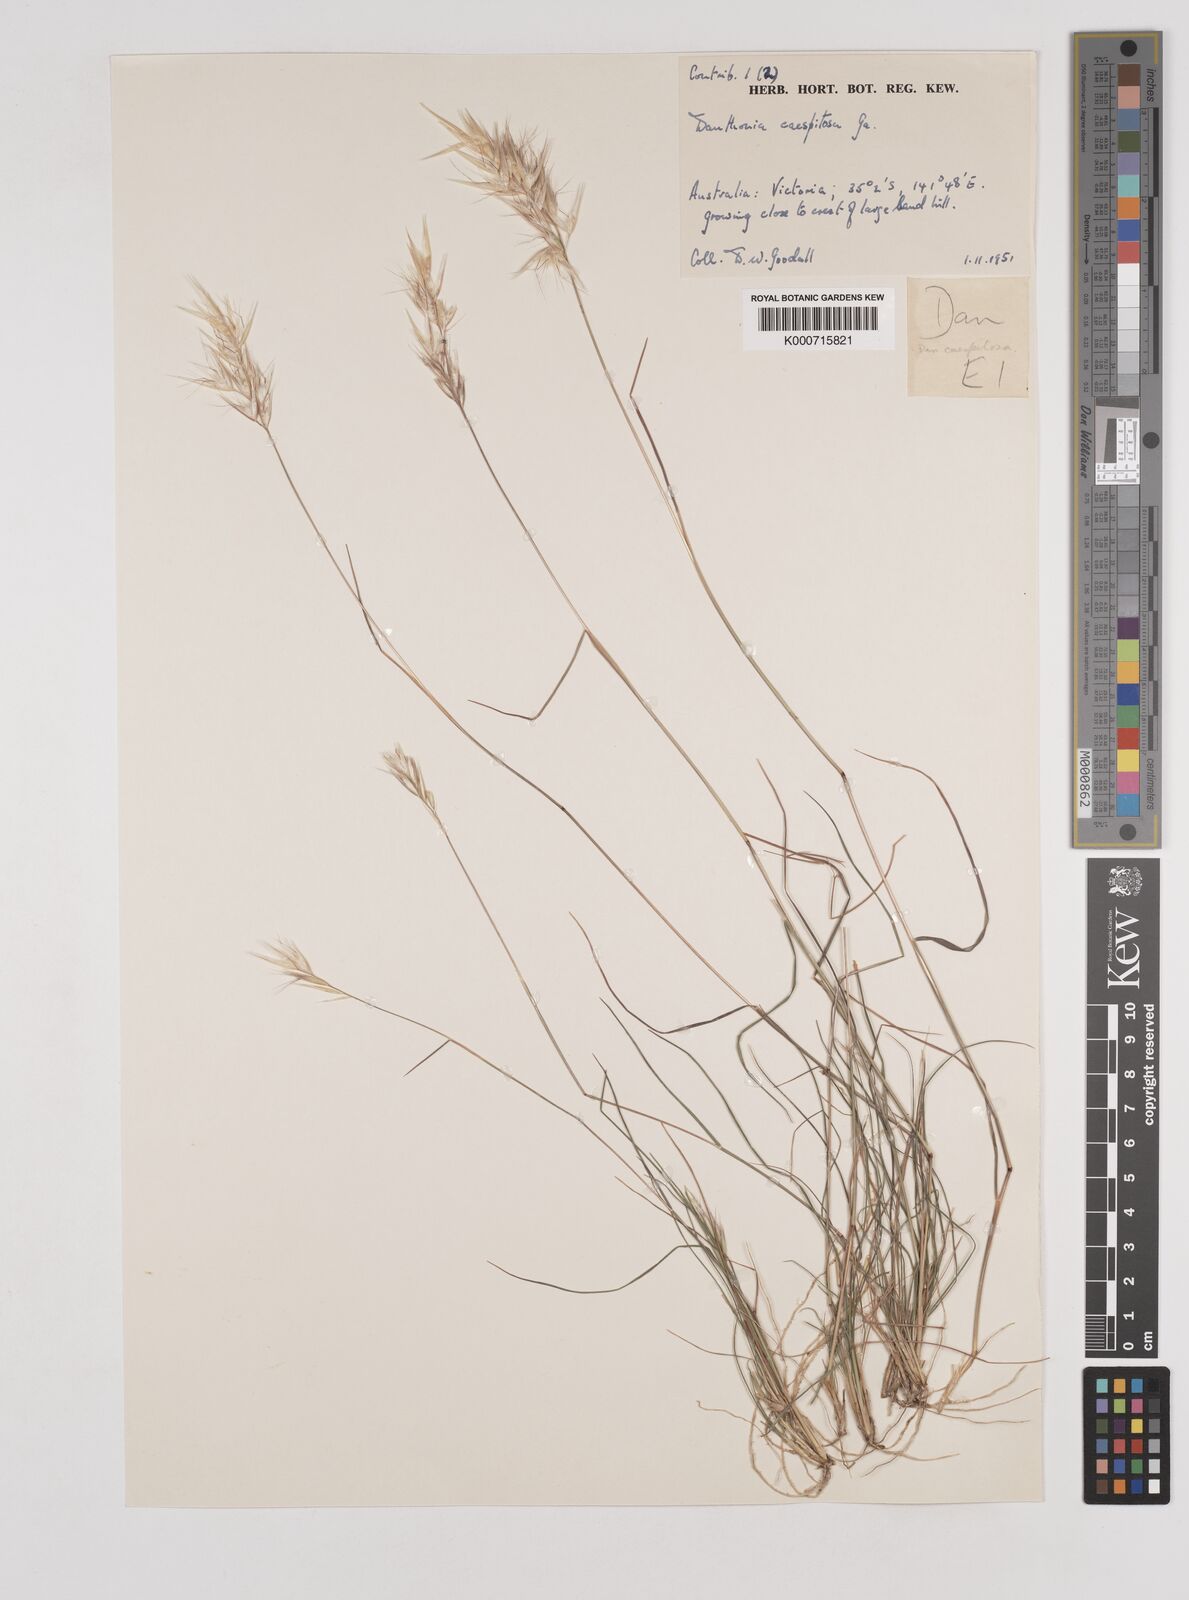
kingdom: Plantae
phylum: Tracheophyta
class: Liliopsida
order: Poales
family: Poaceae
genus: Rytidosperma
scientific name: Rytidosperma caespitosum
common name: Tufted wallaby grass
